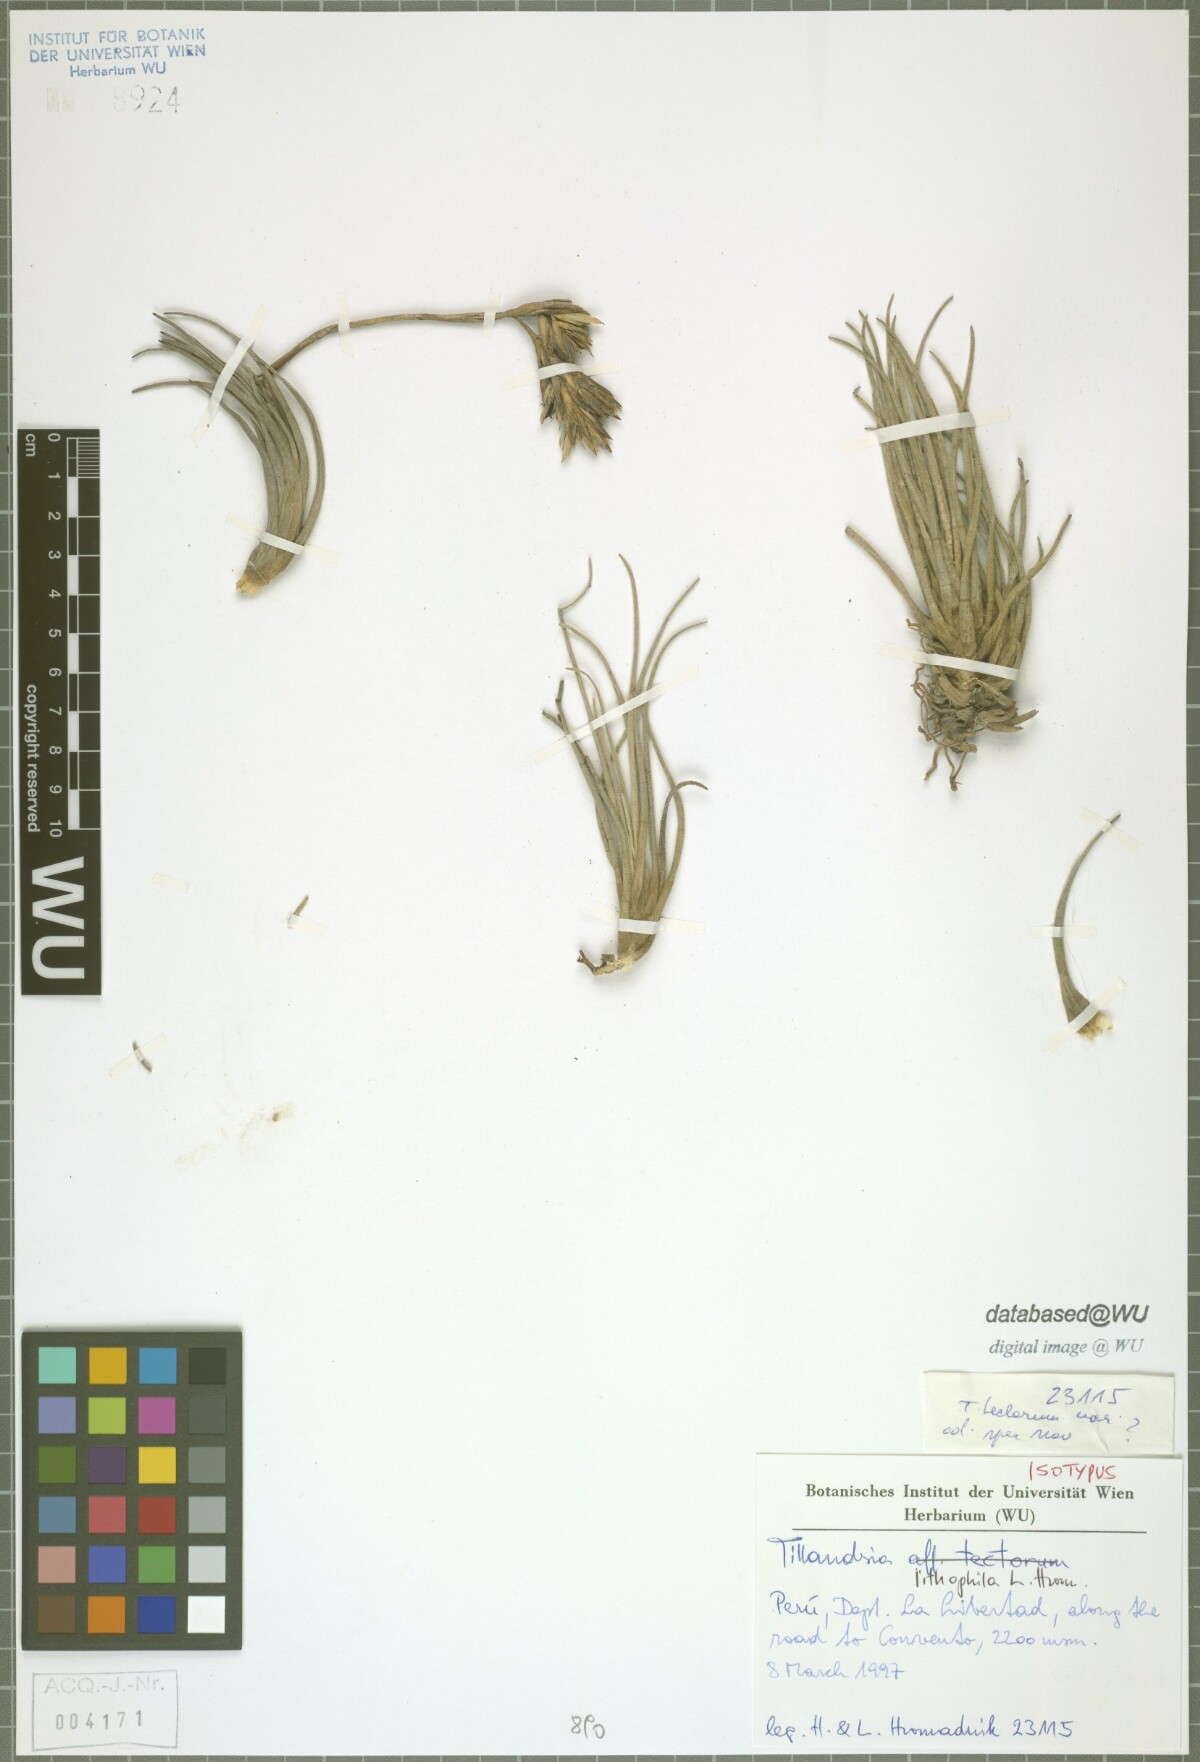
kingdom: Plantae
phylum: Tracheophyta
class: Liliopsida
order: Poales
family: Bromeliaceae
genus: Tillandsia
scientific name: Tillandsia lithophila
